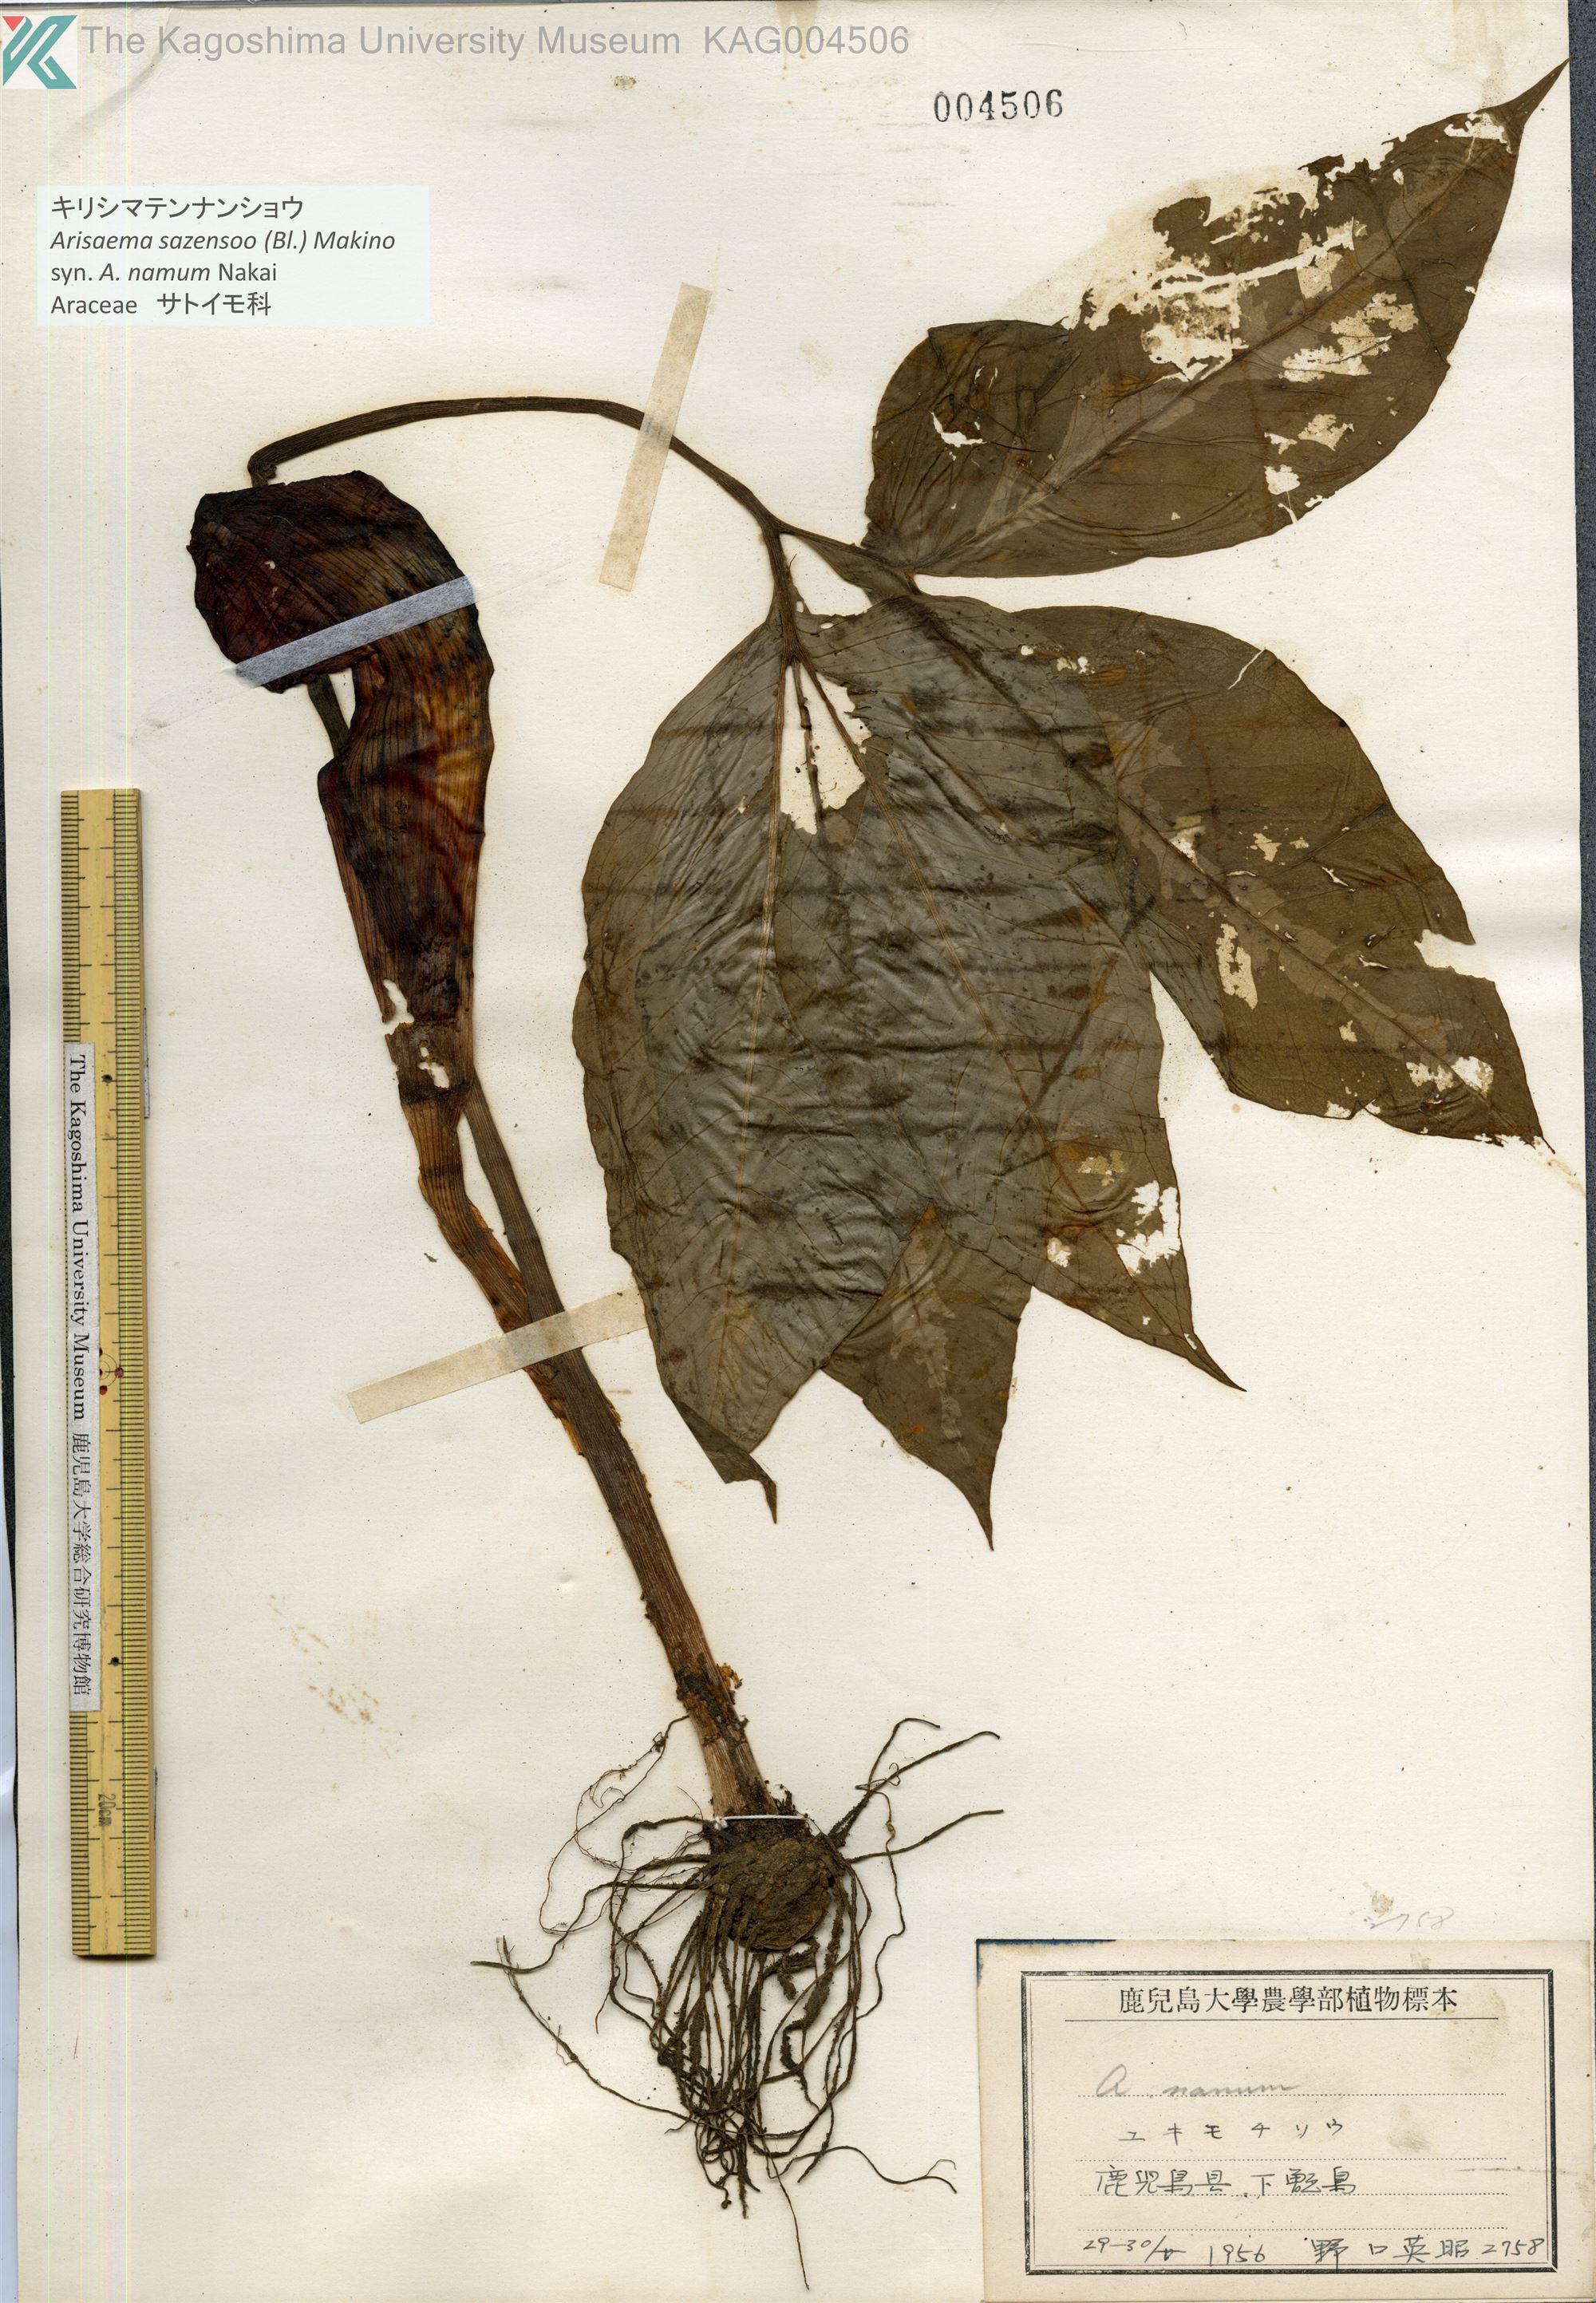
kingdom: Plantae
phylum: Tracheophyta
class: Liliopsida
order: Alismatales
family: Araceae
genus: Arisaema
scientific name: Arisaema sazensoo
